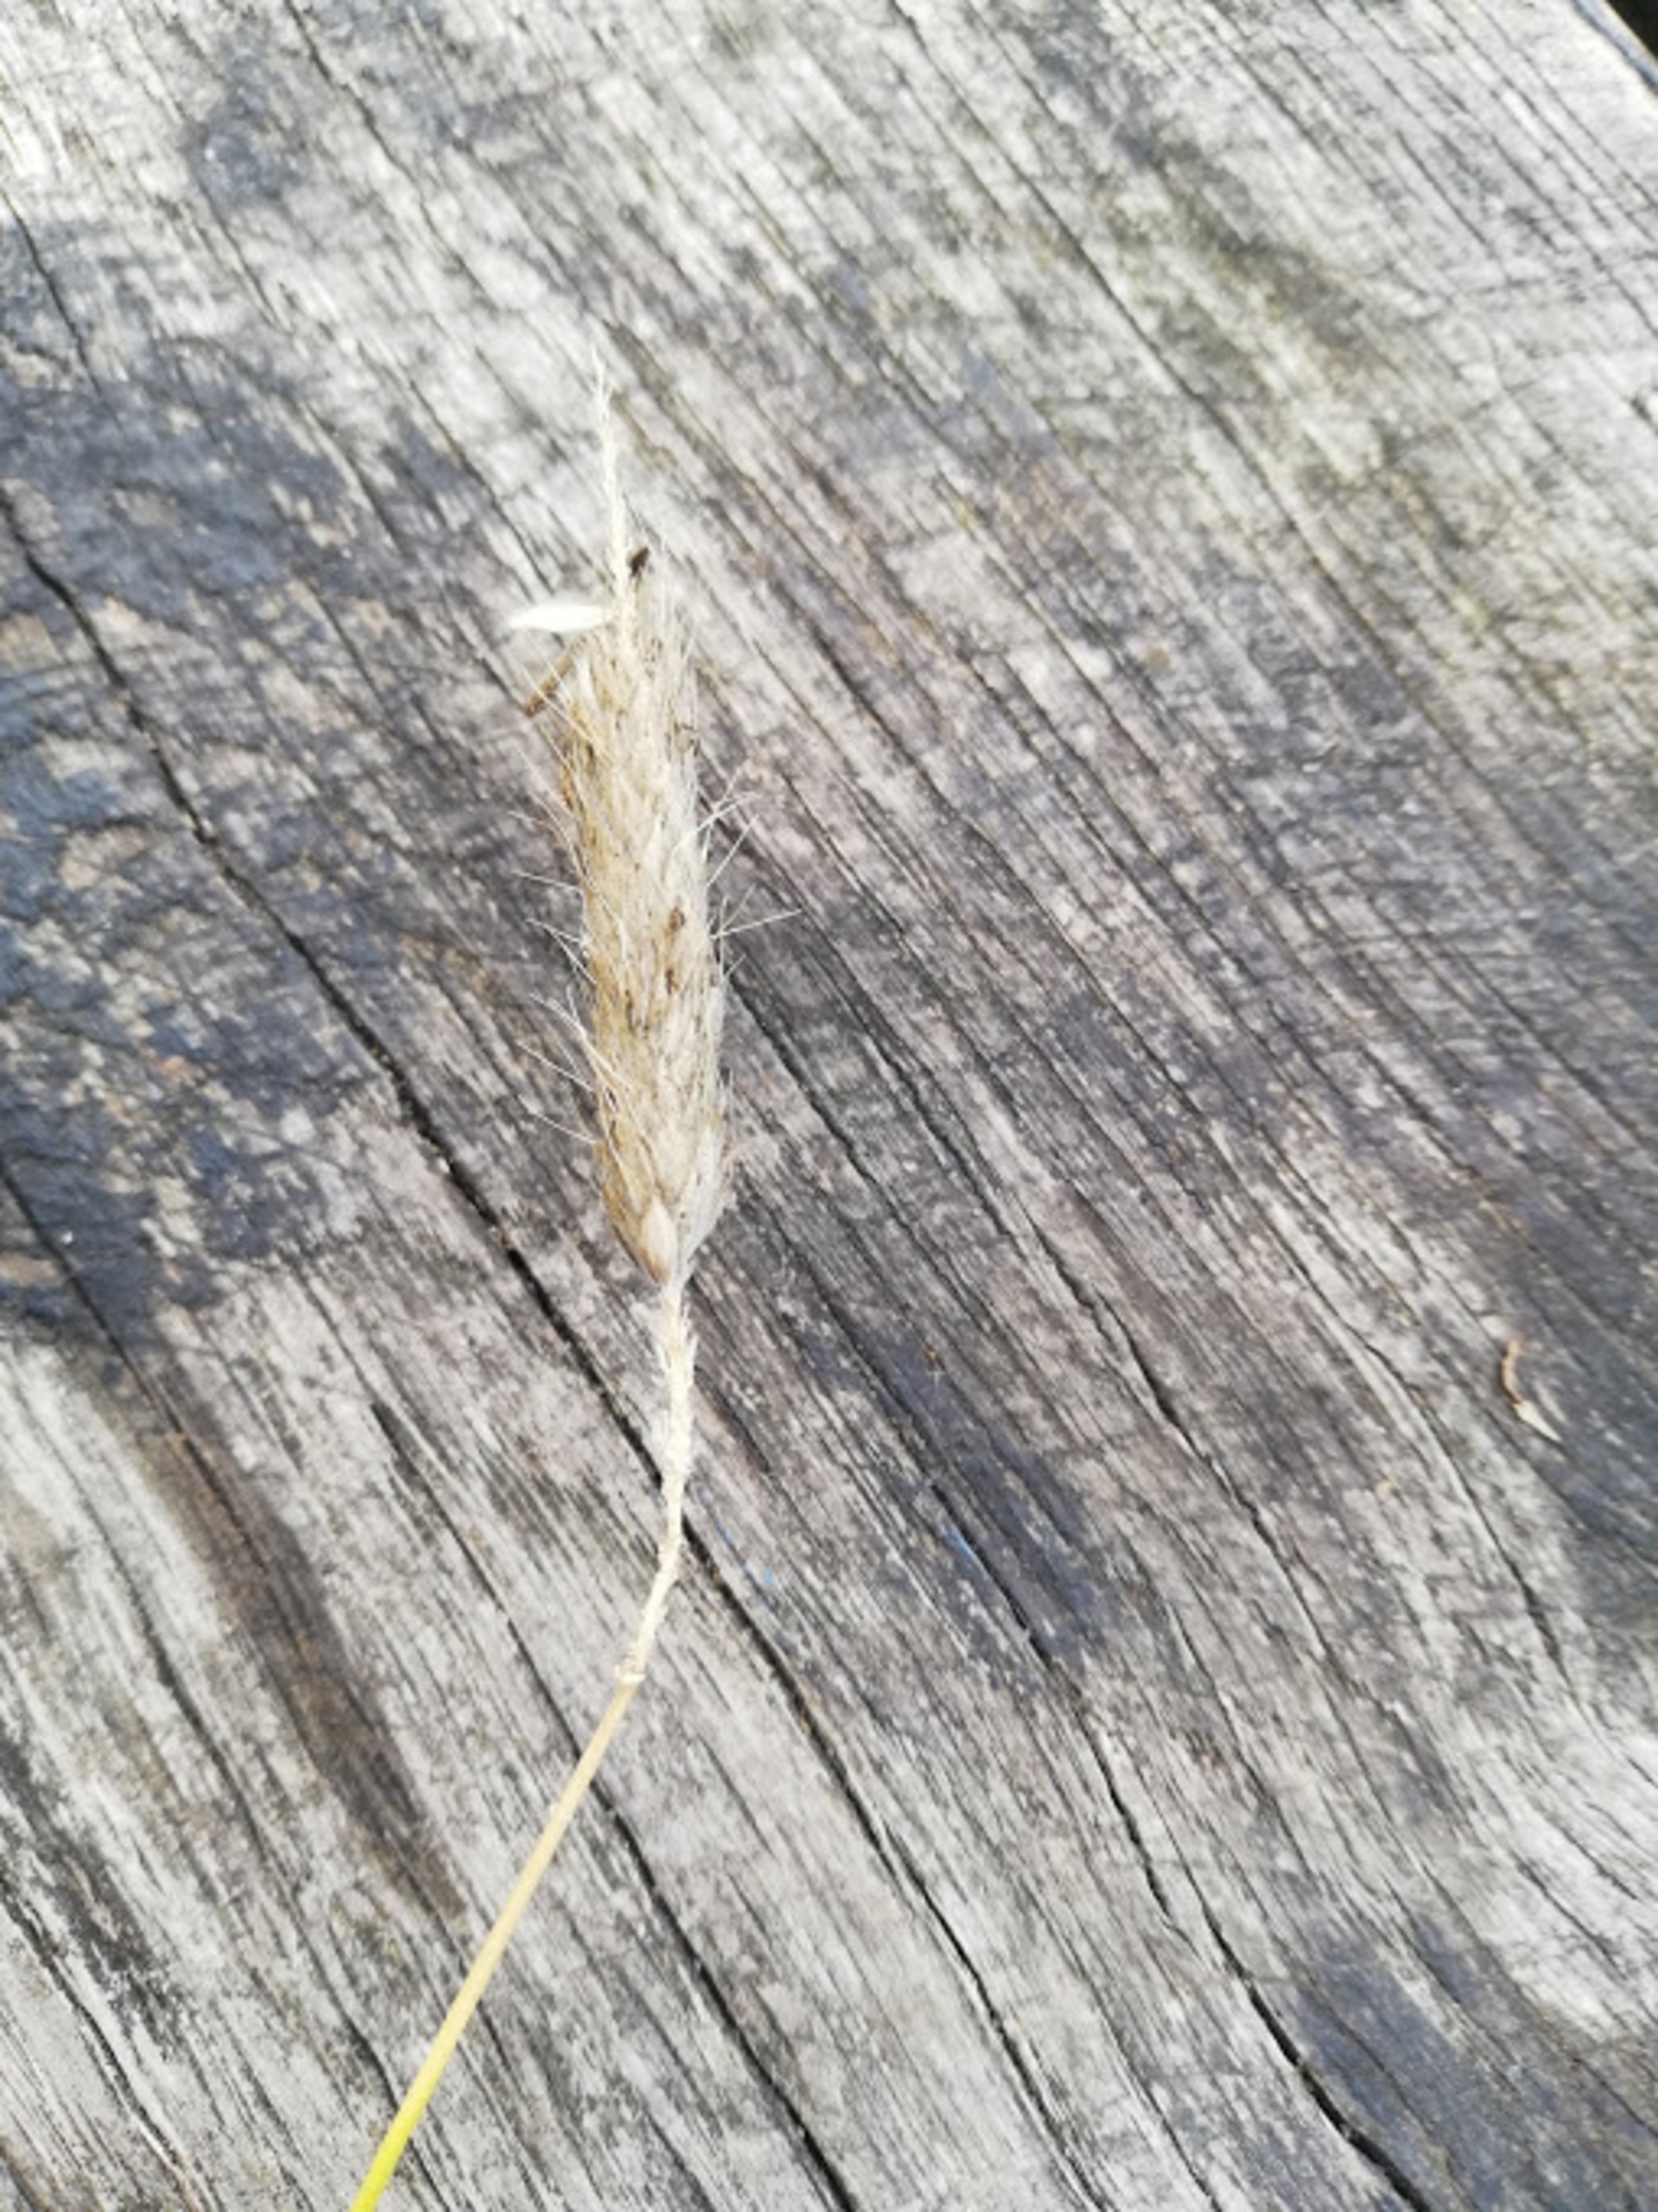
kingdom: Plantae
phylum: Tracheophyta
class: Liliopsida
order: Poales
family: Poaceae
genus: Alopecurus
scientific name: Alopecurus pratensis
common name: Eng-rævehale
